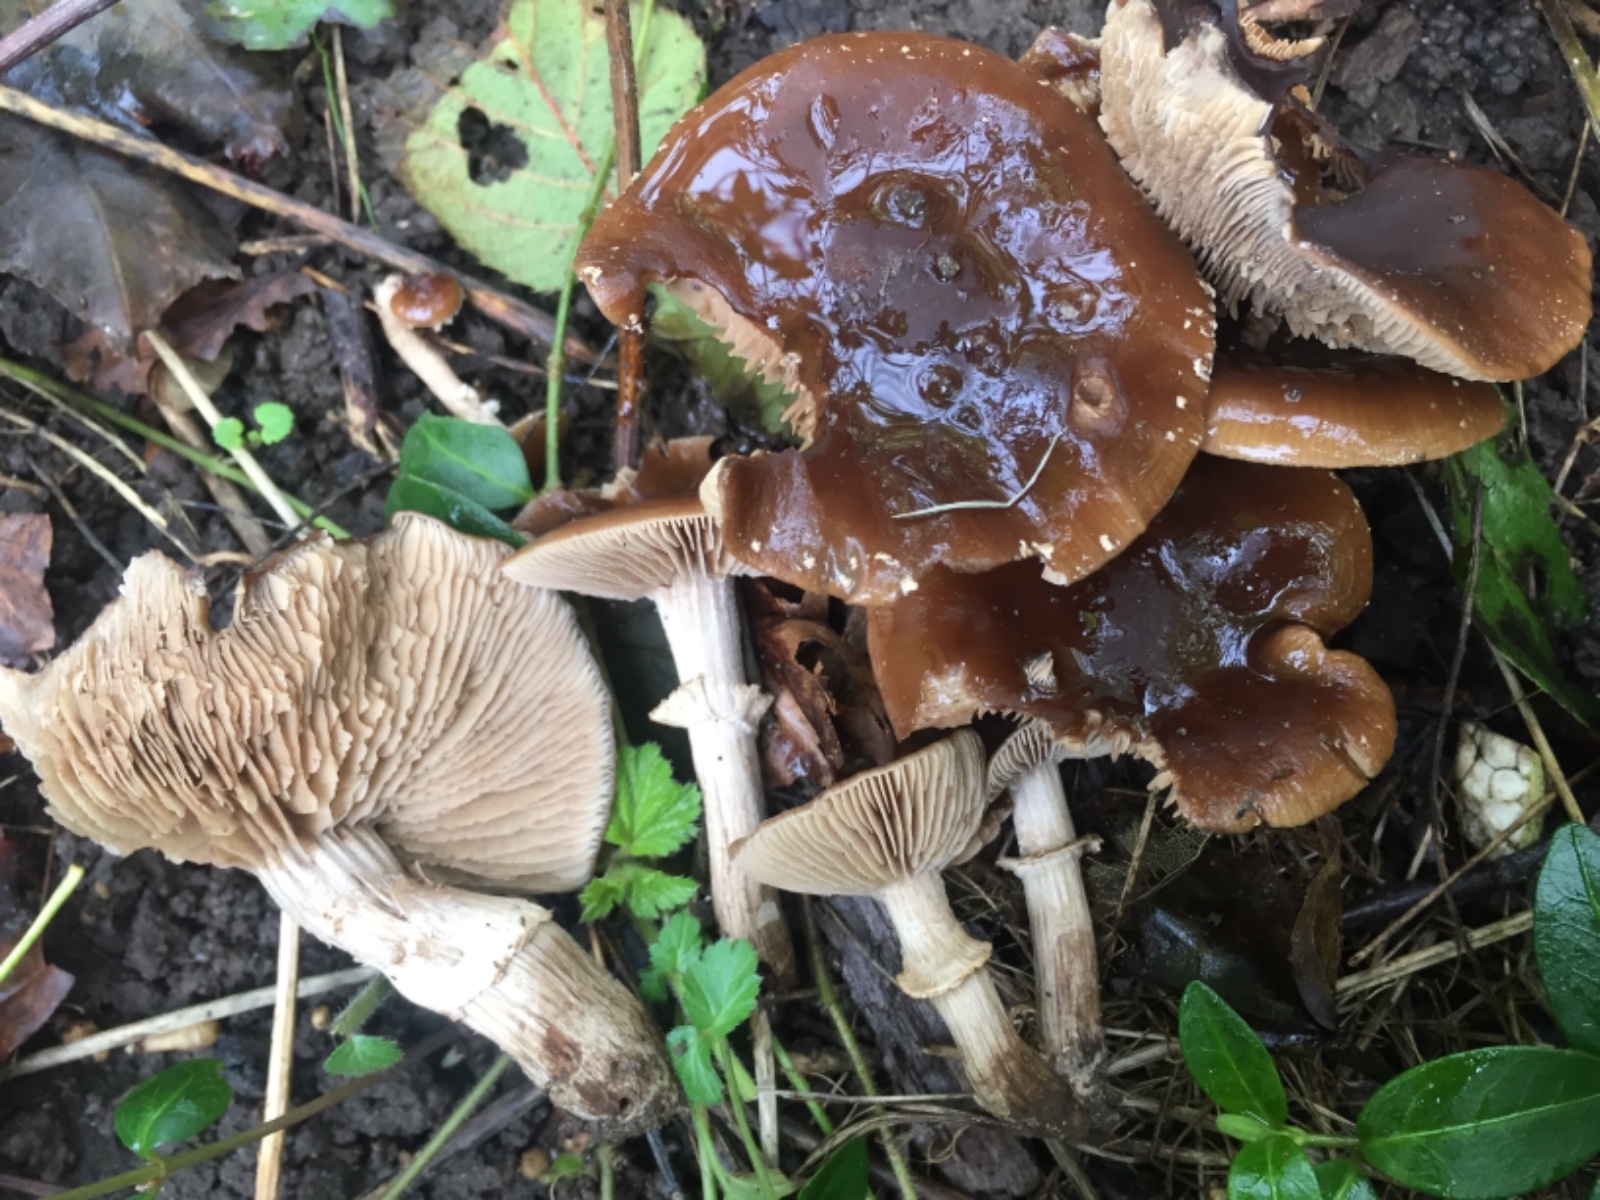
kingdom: Fungi
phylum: Basidiomycota
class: Agaricomycetes
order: Agaricales
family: Tubariaceae
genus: Cyclocybe
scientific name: Cyclocybe erebia
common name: mørk agerhat
